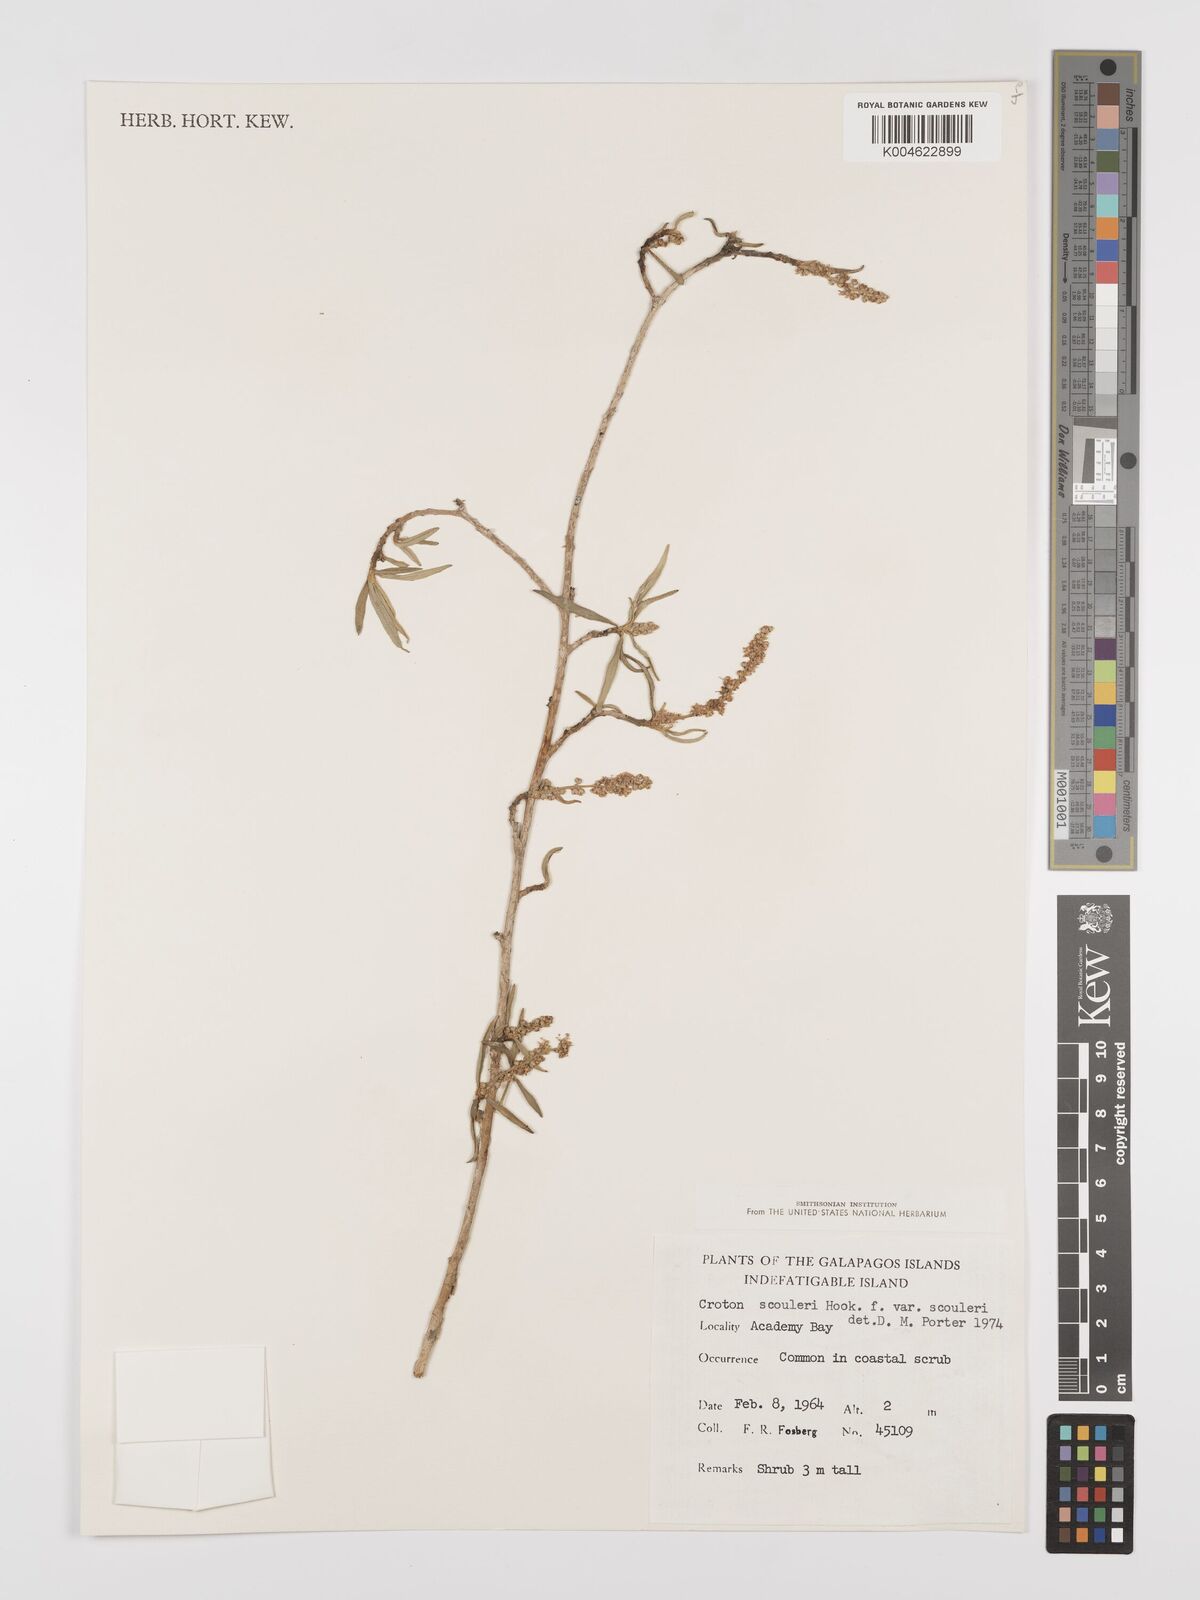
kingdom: Plantae
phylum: Tracheophyta
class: Magnoliopsida
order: Malpighiales
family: Euphorbiaceae
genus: Croton
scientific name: Croton scouleri
